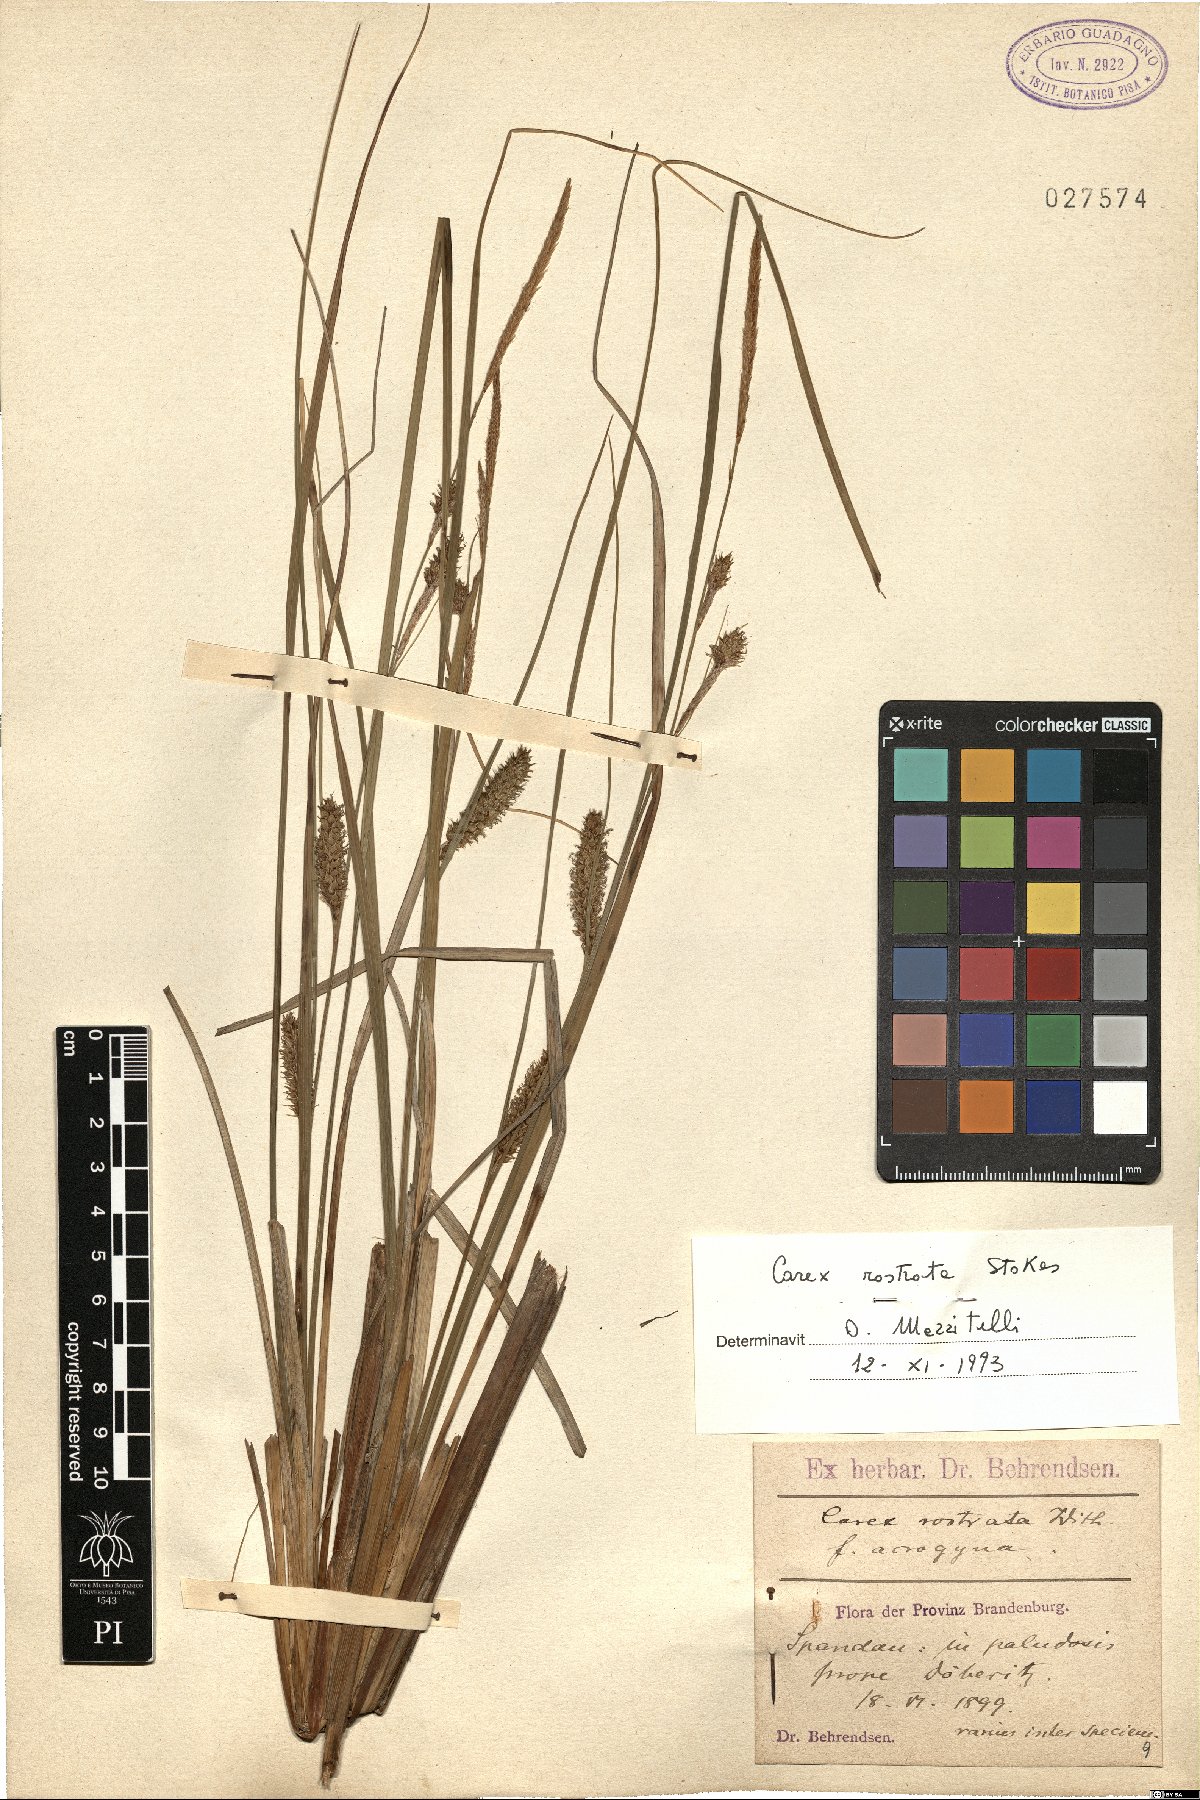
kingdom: Plantae
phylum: Tracheophyta
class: Liliopsida
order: Poales
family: Cyperaceae
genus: Carex
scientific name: Carex rostrata
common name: Bottle sedge
